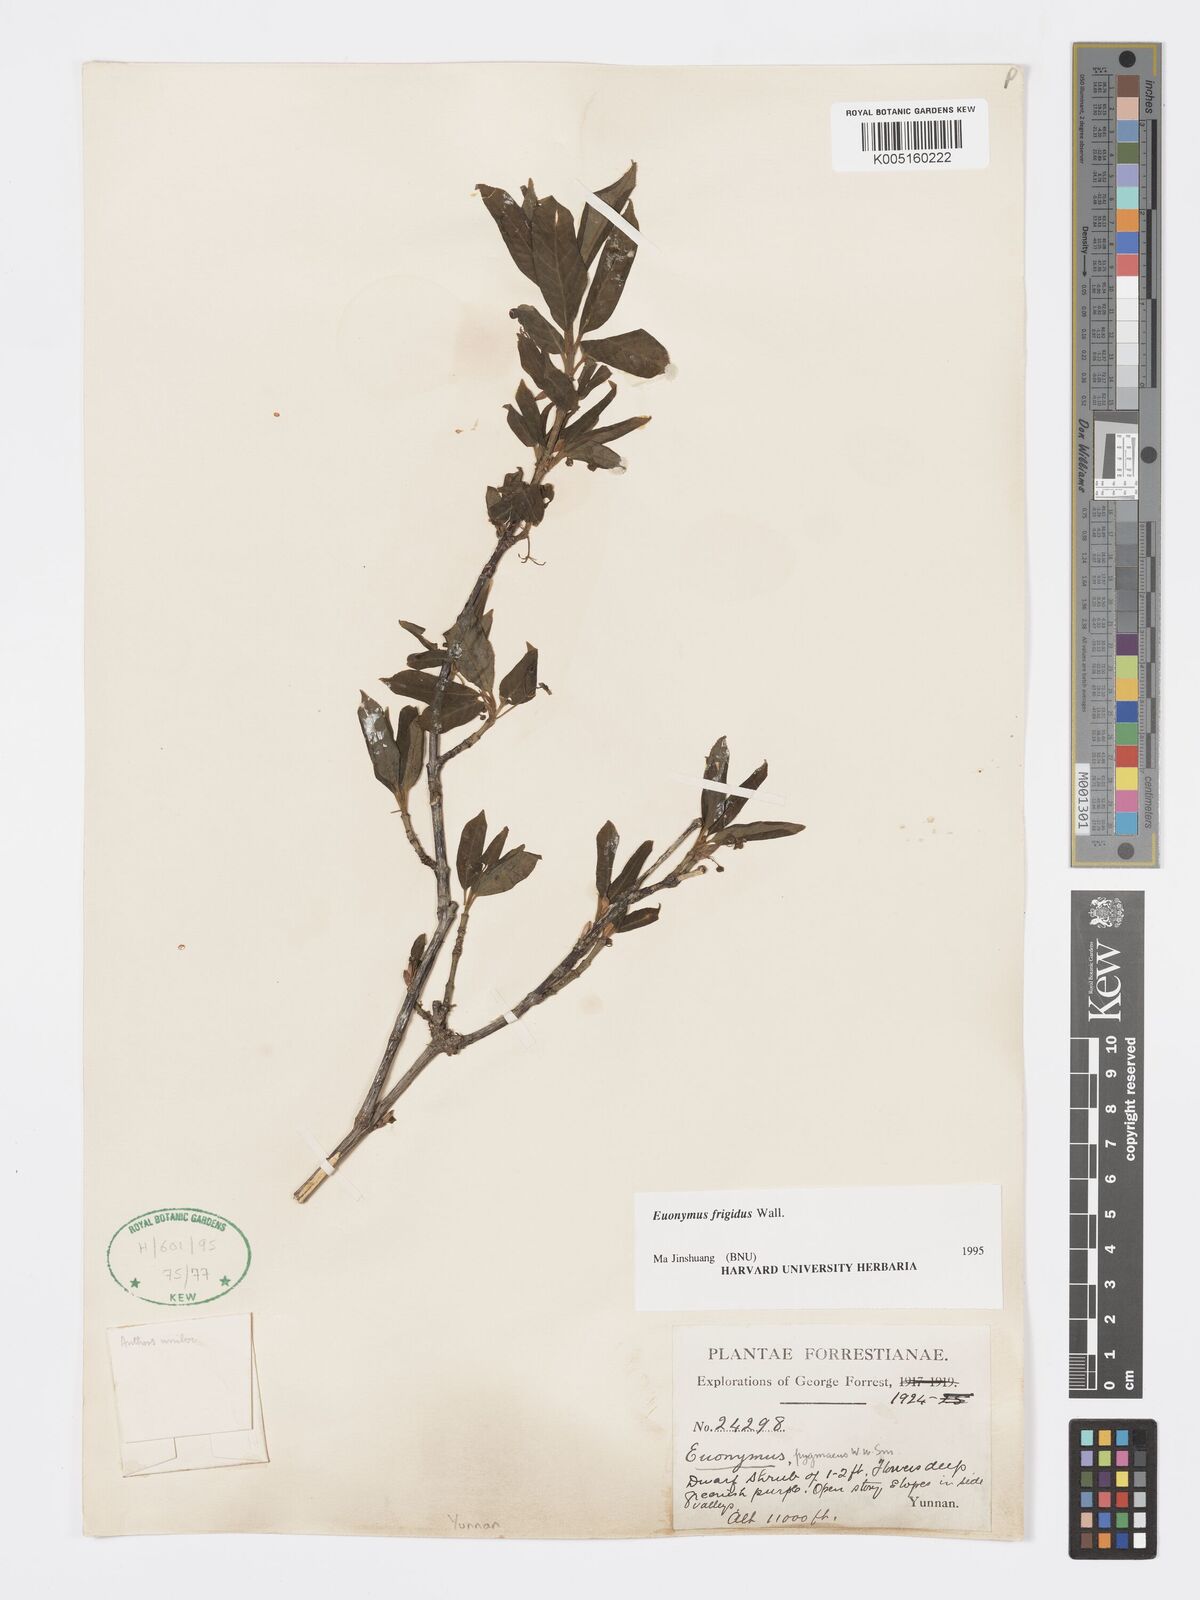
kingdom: Plantae
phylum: Tracheophyta
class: Magnoliopsida
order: Celastrales
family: Celastraceae
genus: Euonymus
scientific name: Euonymus frigidus
